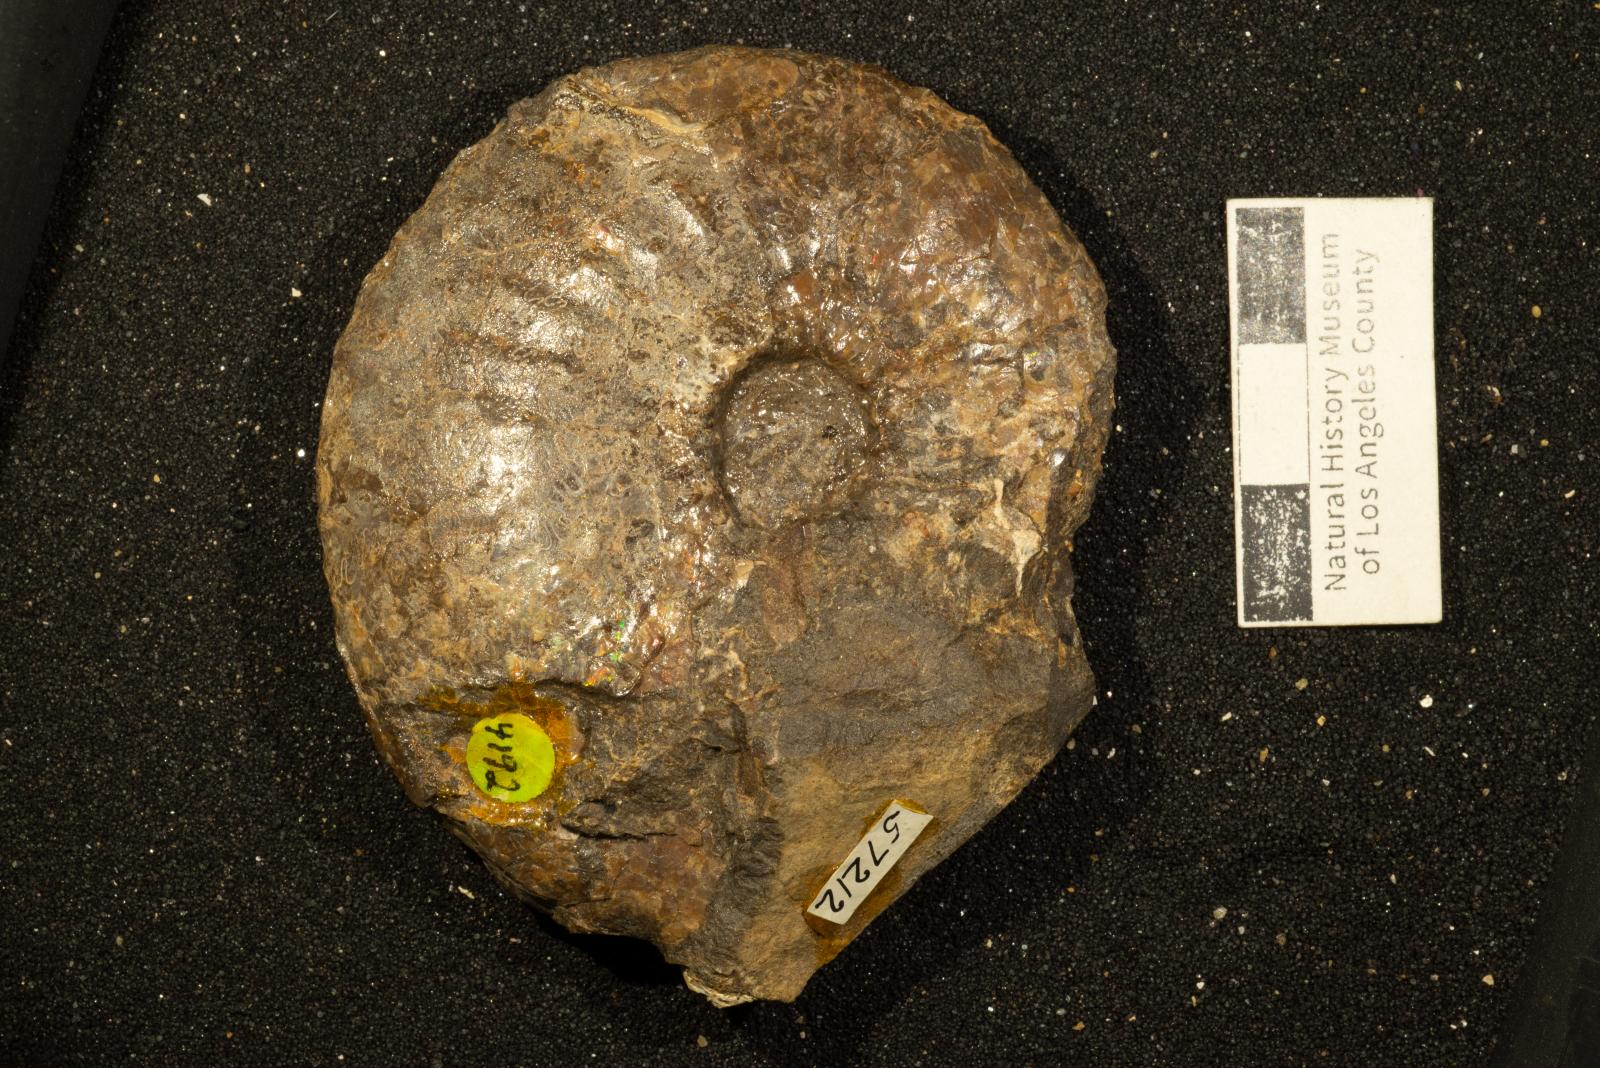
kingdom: Animalia
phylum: Mollusca
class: Cephalopoda
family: Collignoniceratidae
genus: Submortoniceras
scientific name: Submortoniceras
